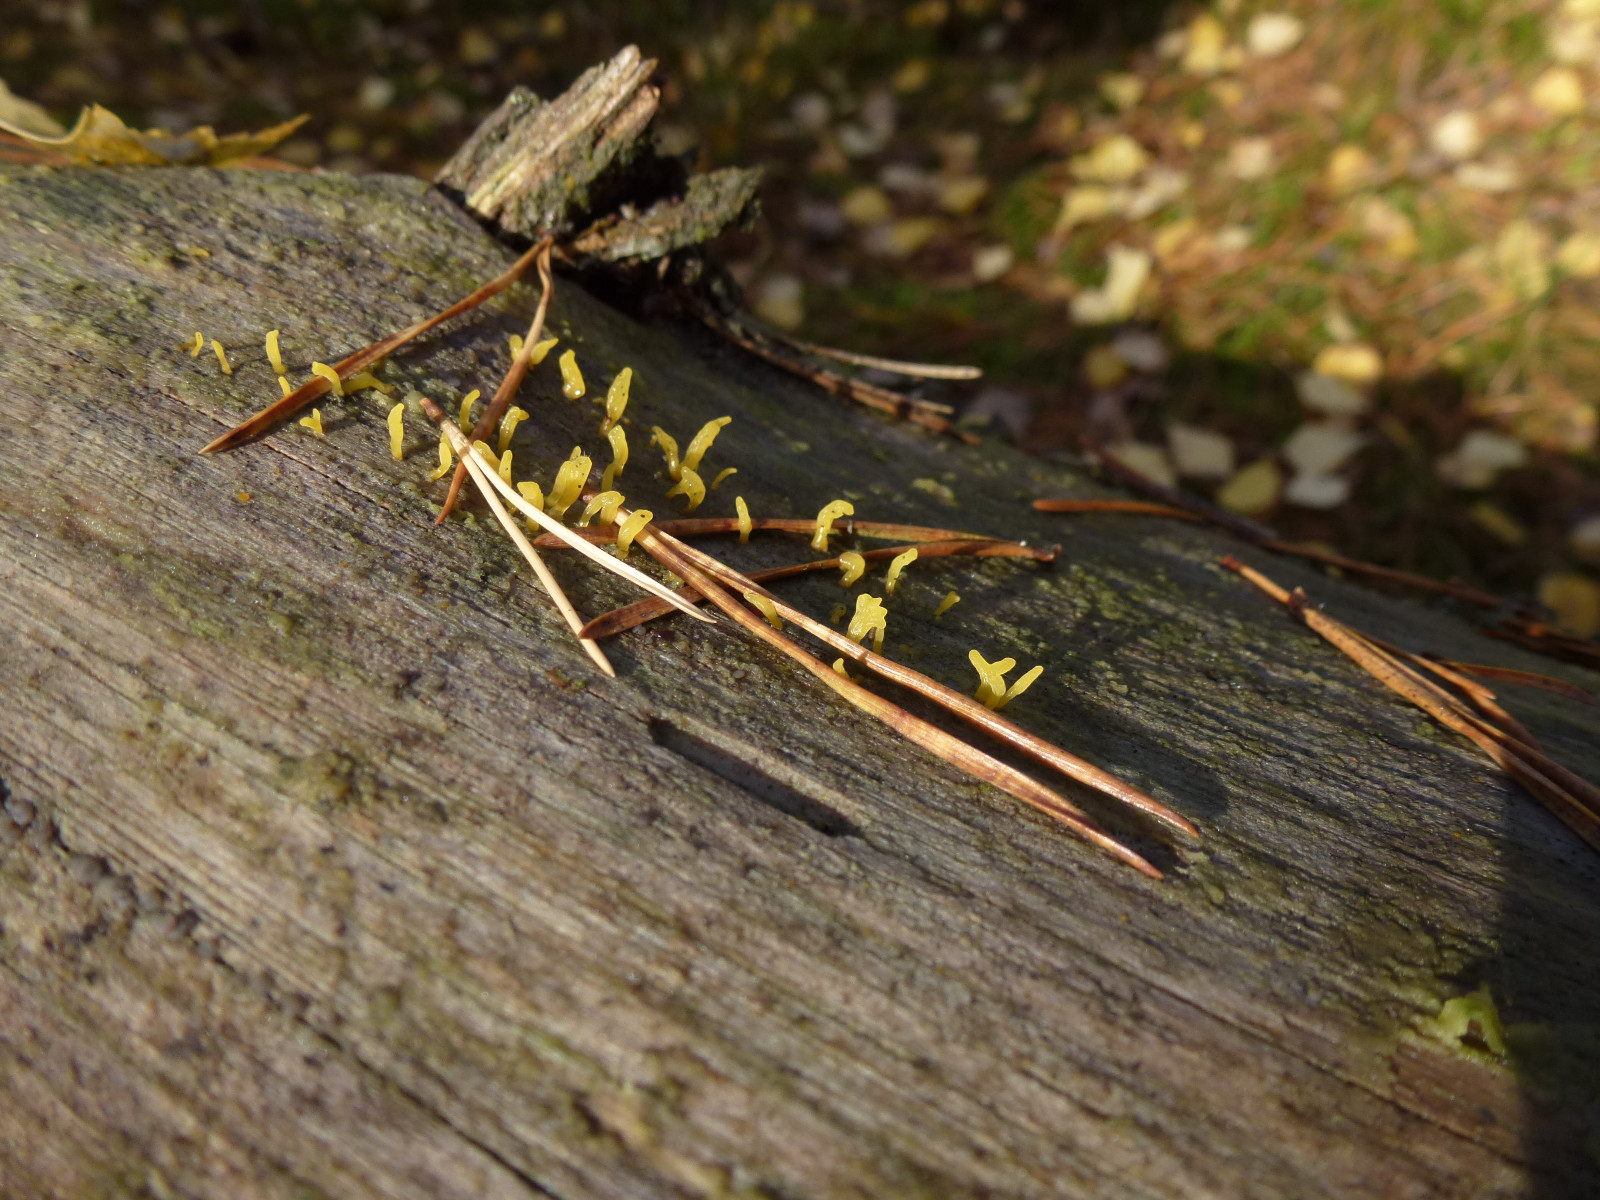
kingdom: Fungi
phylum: Basidiomycota
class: Dacrymycetes
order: Dacrymycetales
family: Dacrymycetaceae
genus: Calocera
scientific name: Calocera cornea
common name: liden guldgaffel
